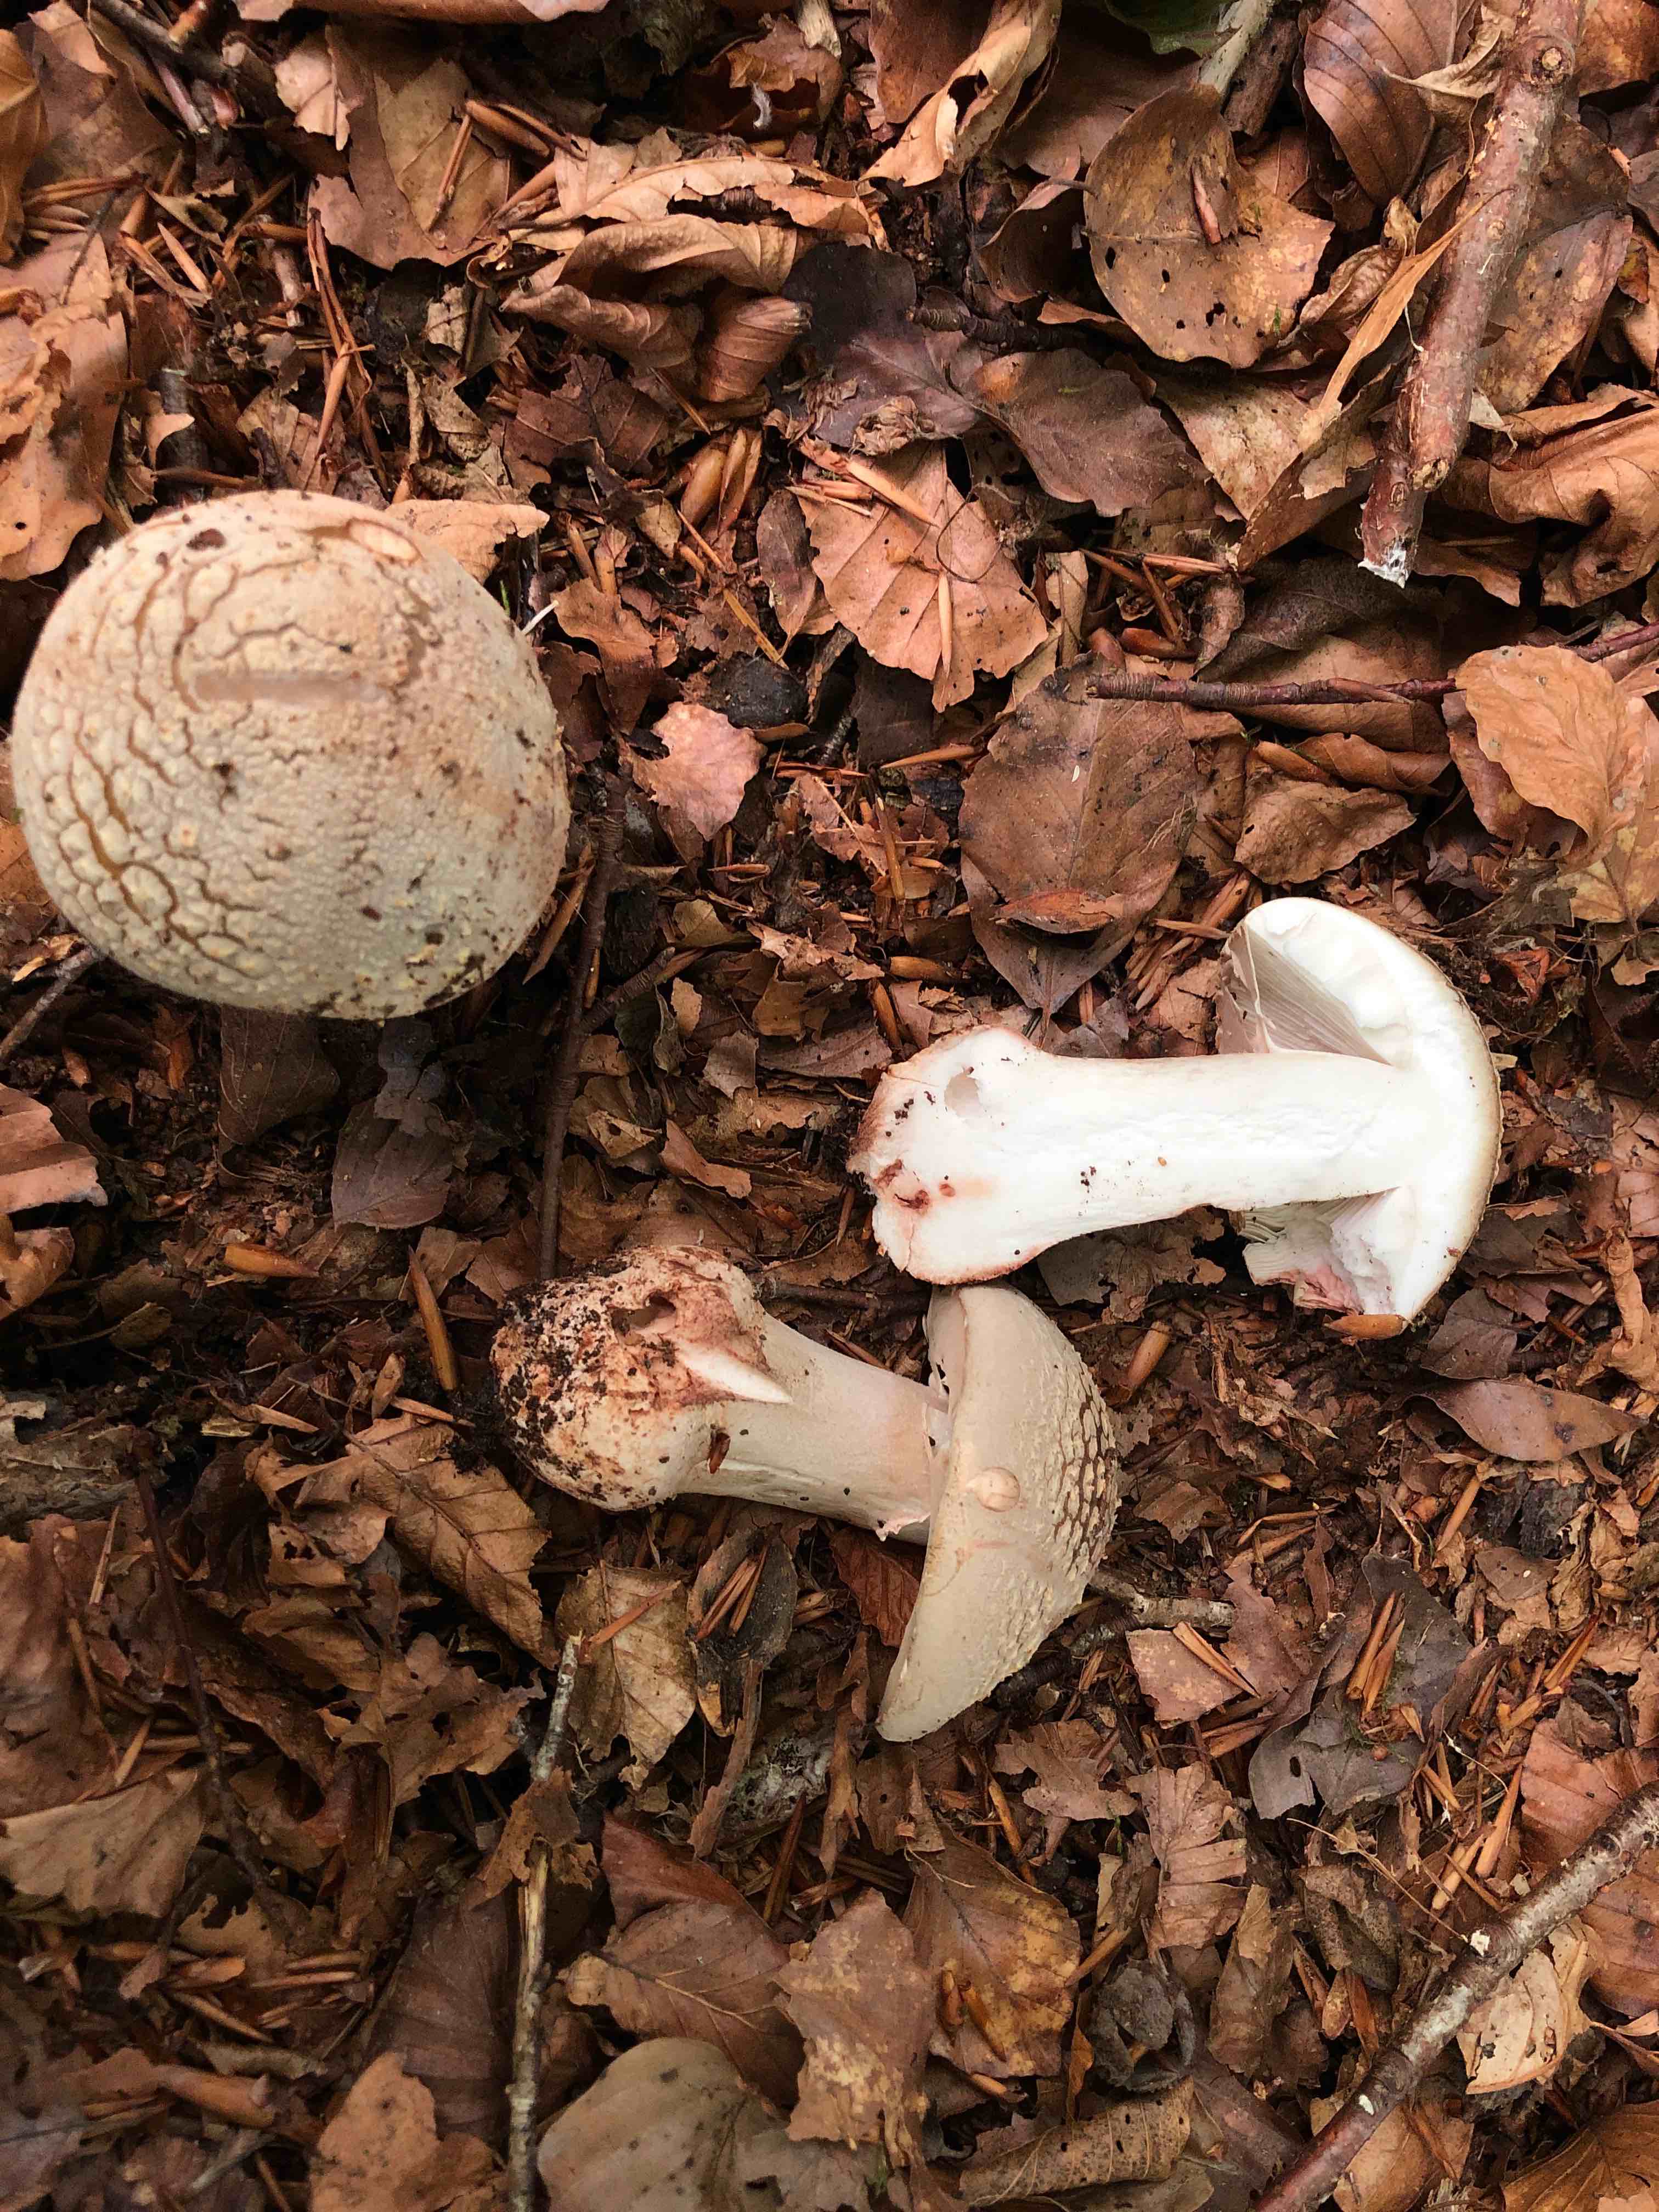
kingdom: Fungi
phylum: Basidiomycota
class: Agaricomycetes
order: Agaricales
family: Amanitaceae
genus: Amanita
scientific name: Amanita rubescens
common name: rødmende fluesvamp
